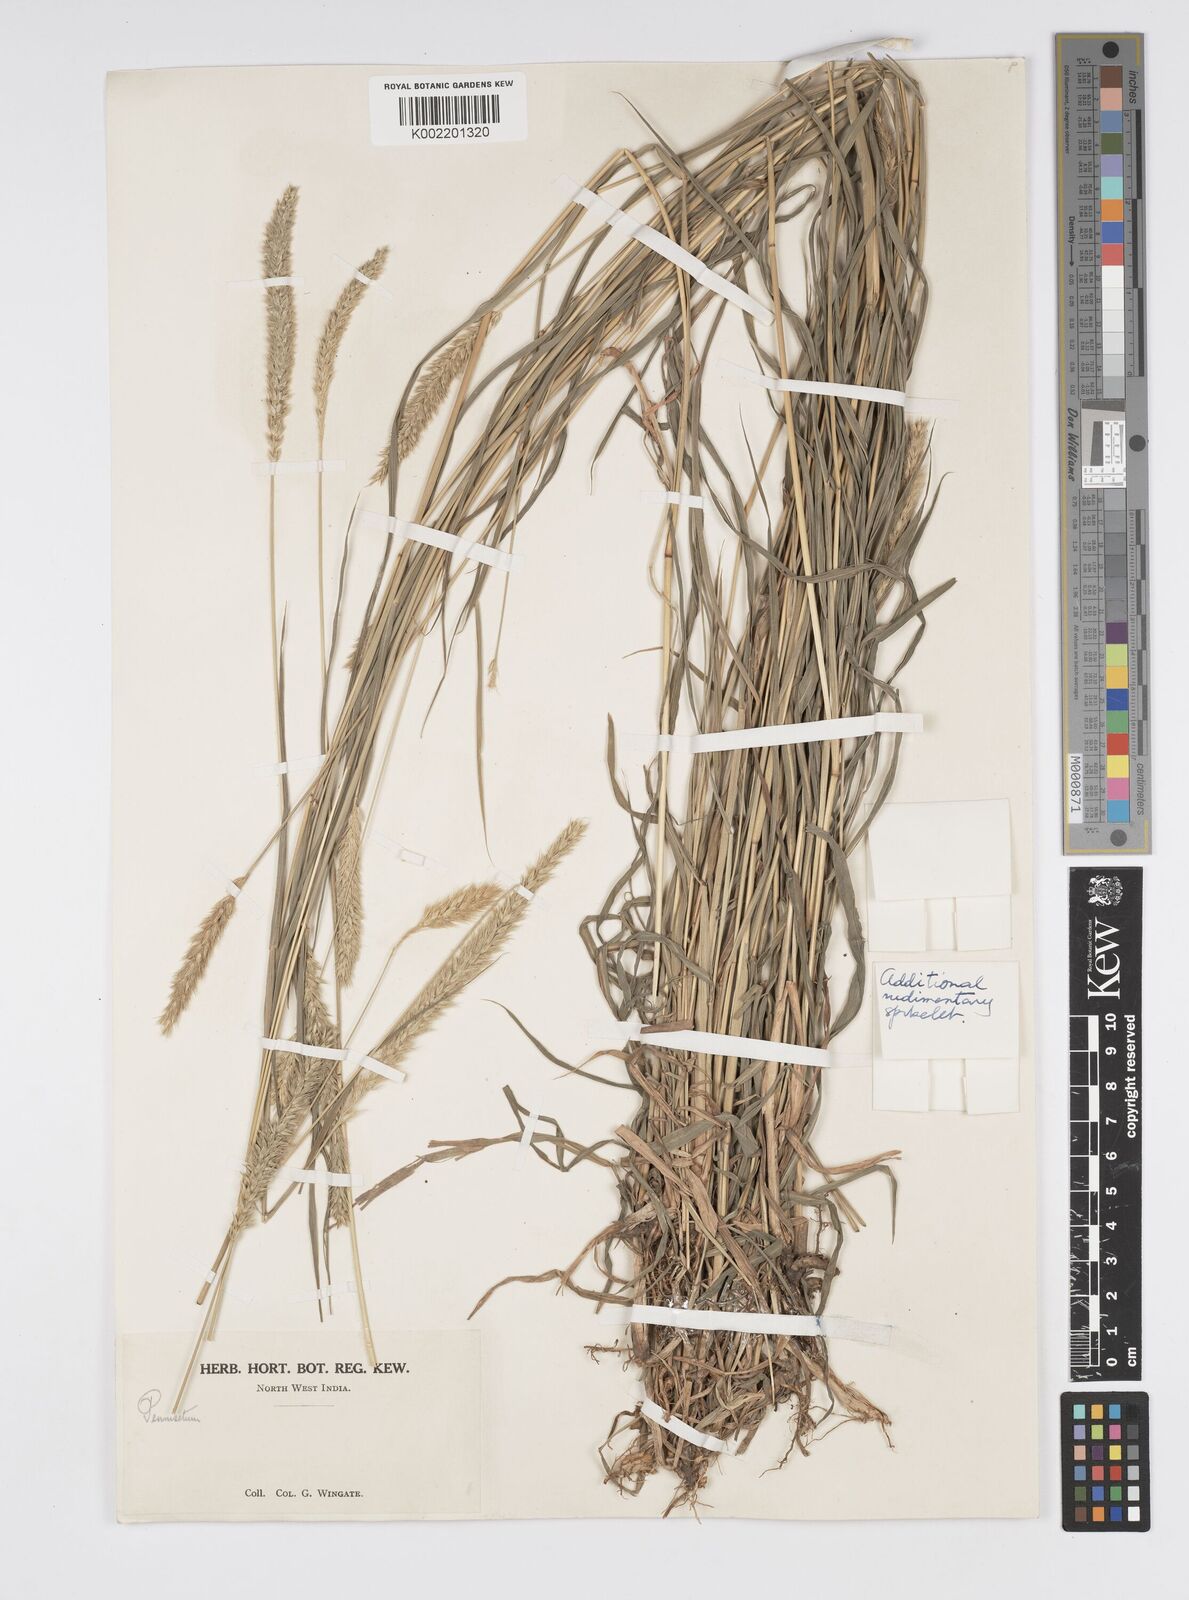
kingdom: Plantae
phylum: Tracheophyta
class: Liliopsida
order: Poales
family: Poaceae
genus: Cenchrus
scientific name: Cenchrus lanatus
